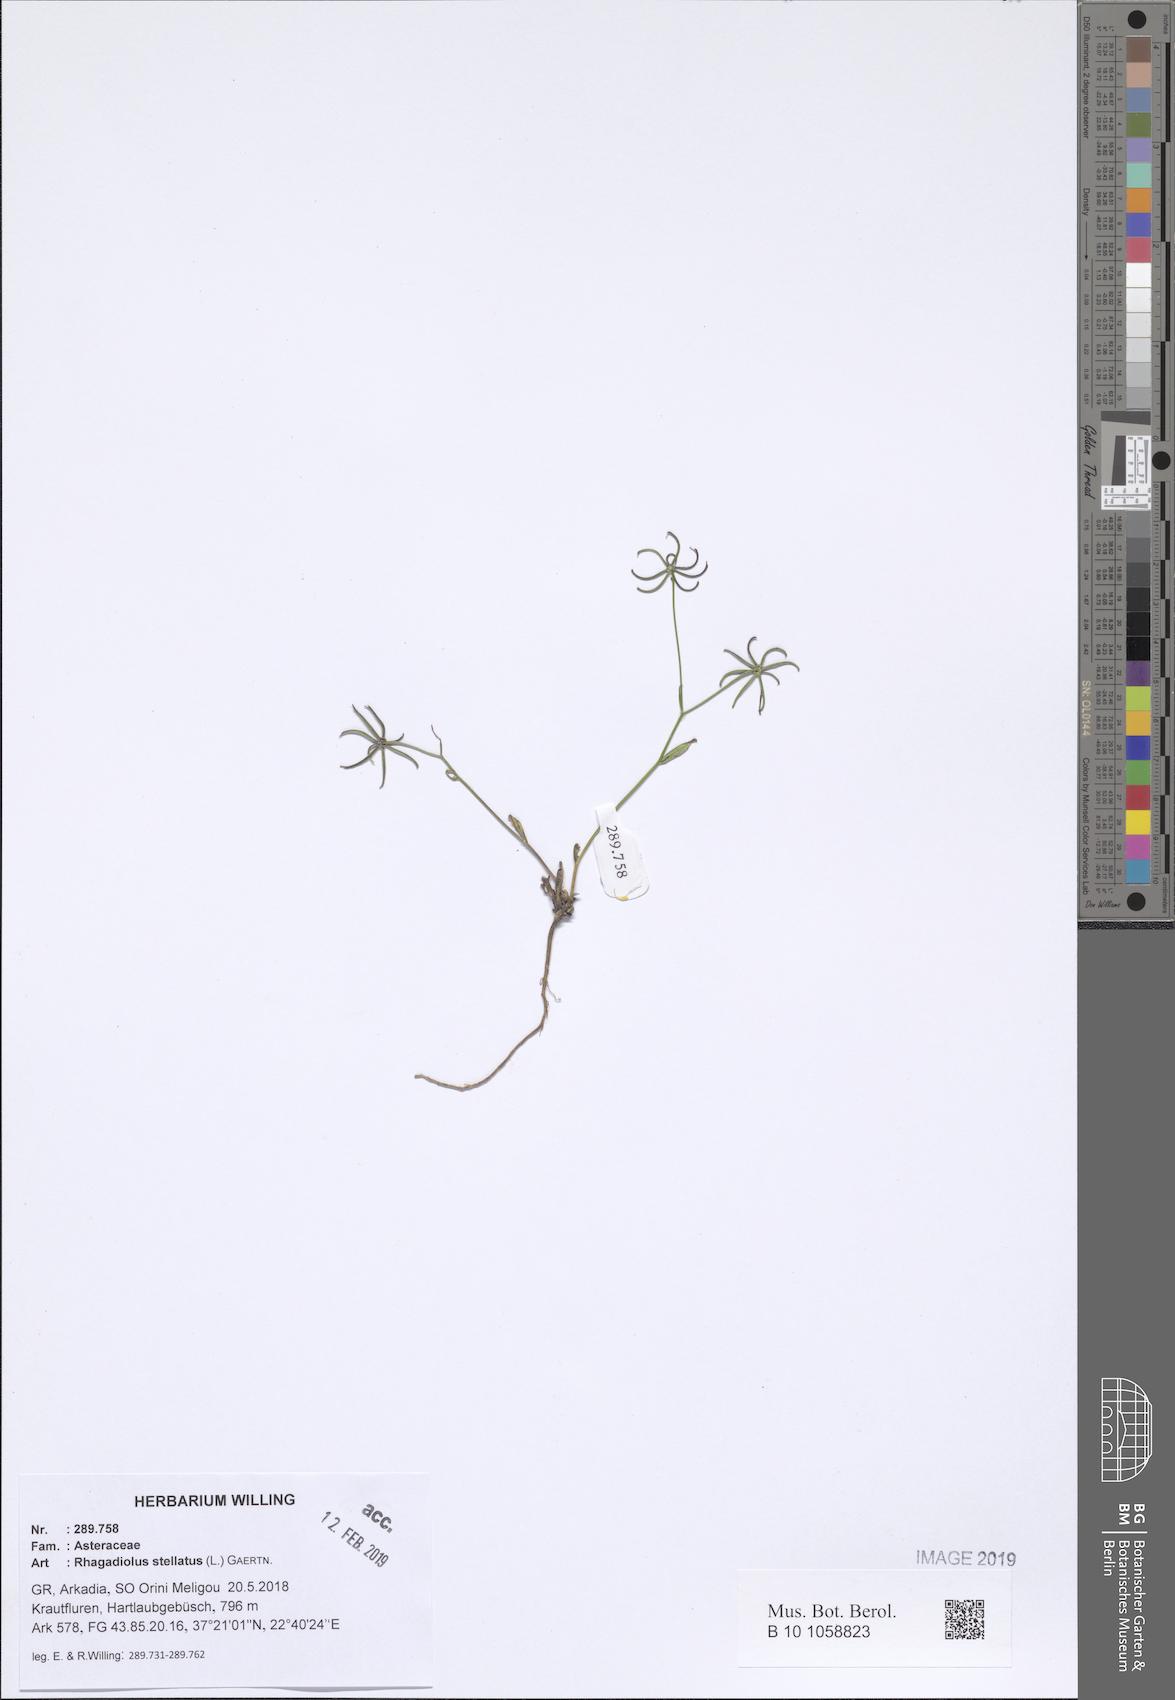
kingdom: Plantae
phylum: Tracheophyta
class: Magnoliopsida
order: Asterales
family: Asteraceae
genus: Rhagadiolus
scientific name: Rhagadiolus stellatus
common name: Star hawkbit
